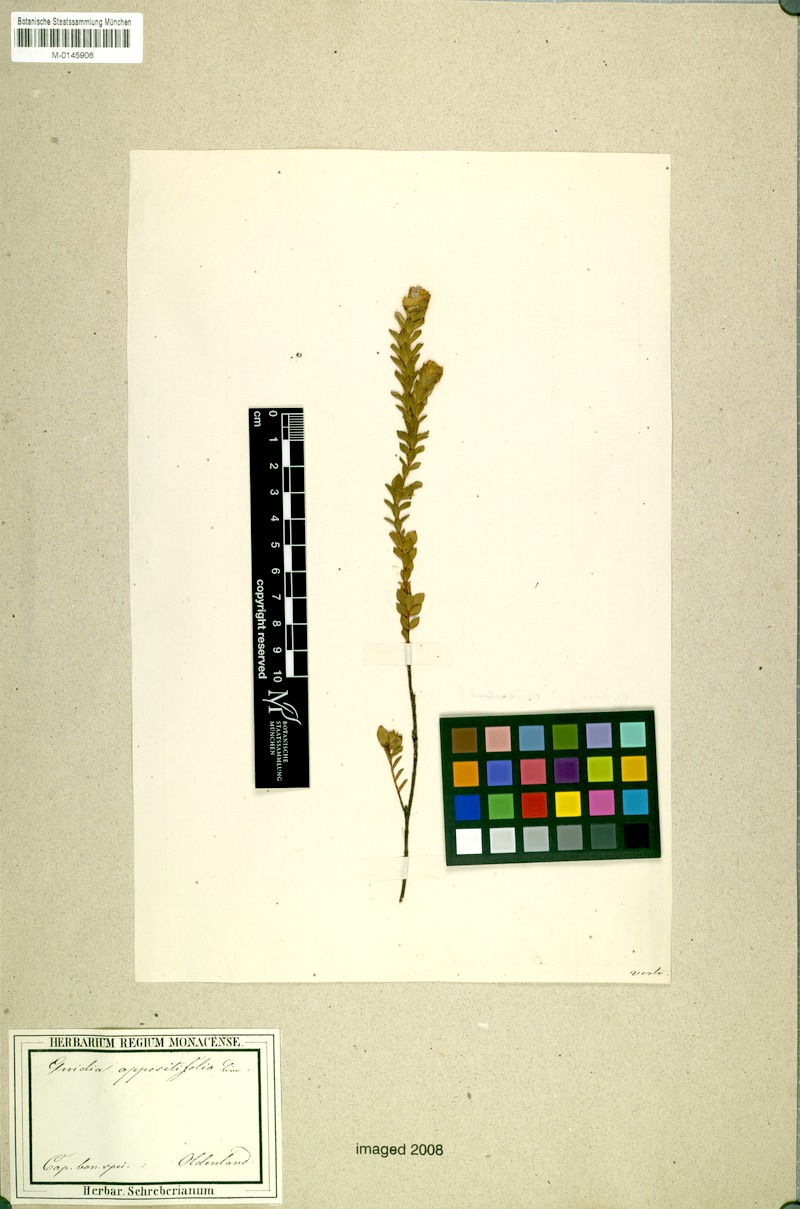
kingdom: Plantae
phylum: Tracheophyta
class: Magnoliopsida
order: Malvales
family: Thymelaeaceae
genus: Gnidia
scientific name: Gnidia oppositifolia
